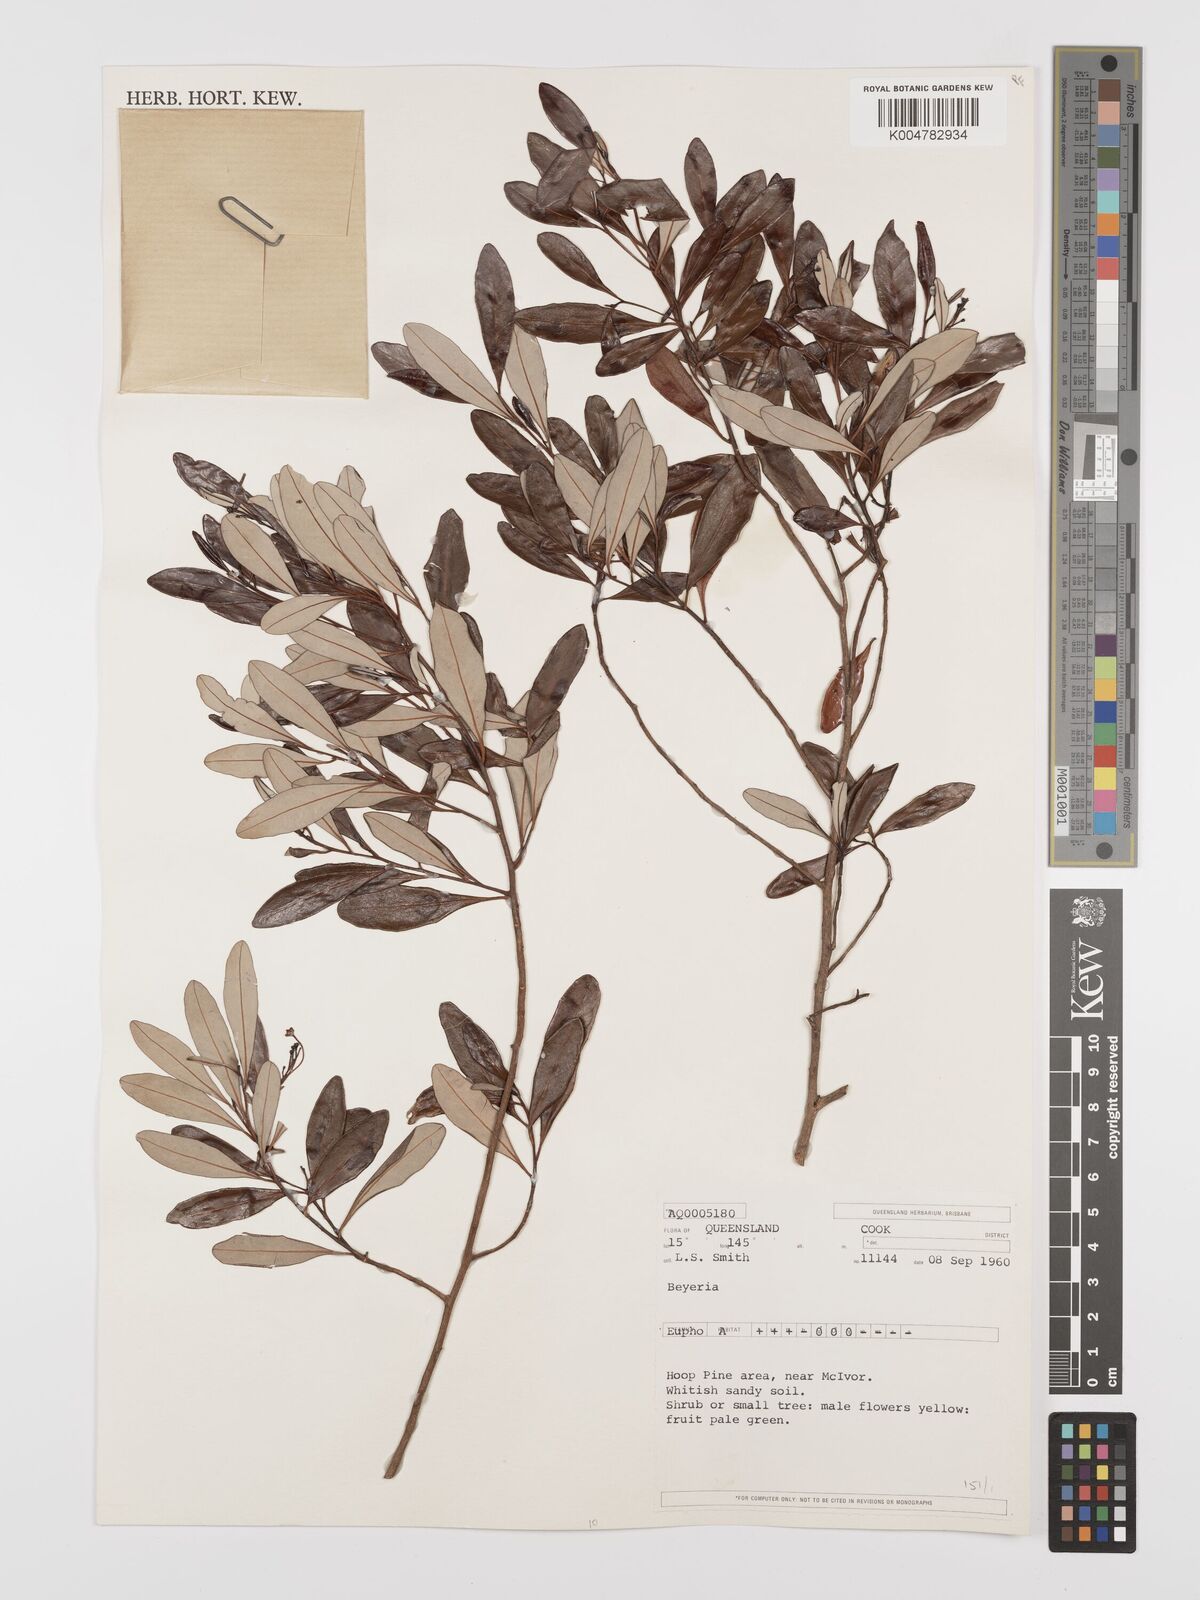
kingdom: Plantae
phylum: Tracheophyta
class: Magnoliopsida
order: Malpighiales
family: Euphorbiaceae
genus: Shonia
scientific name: Shonia tristigma
